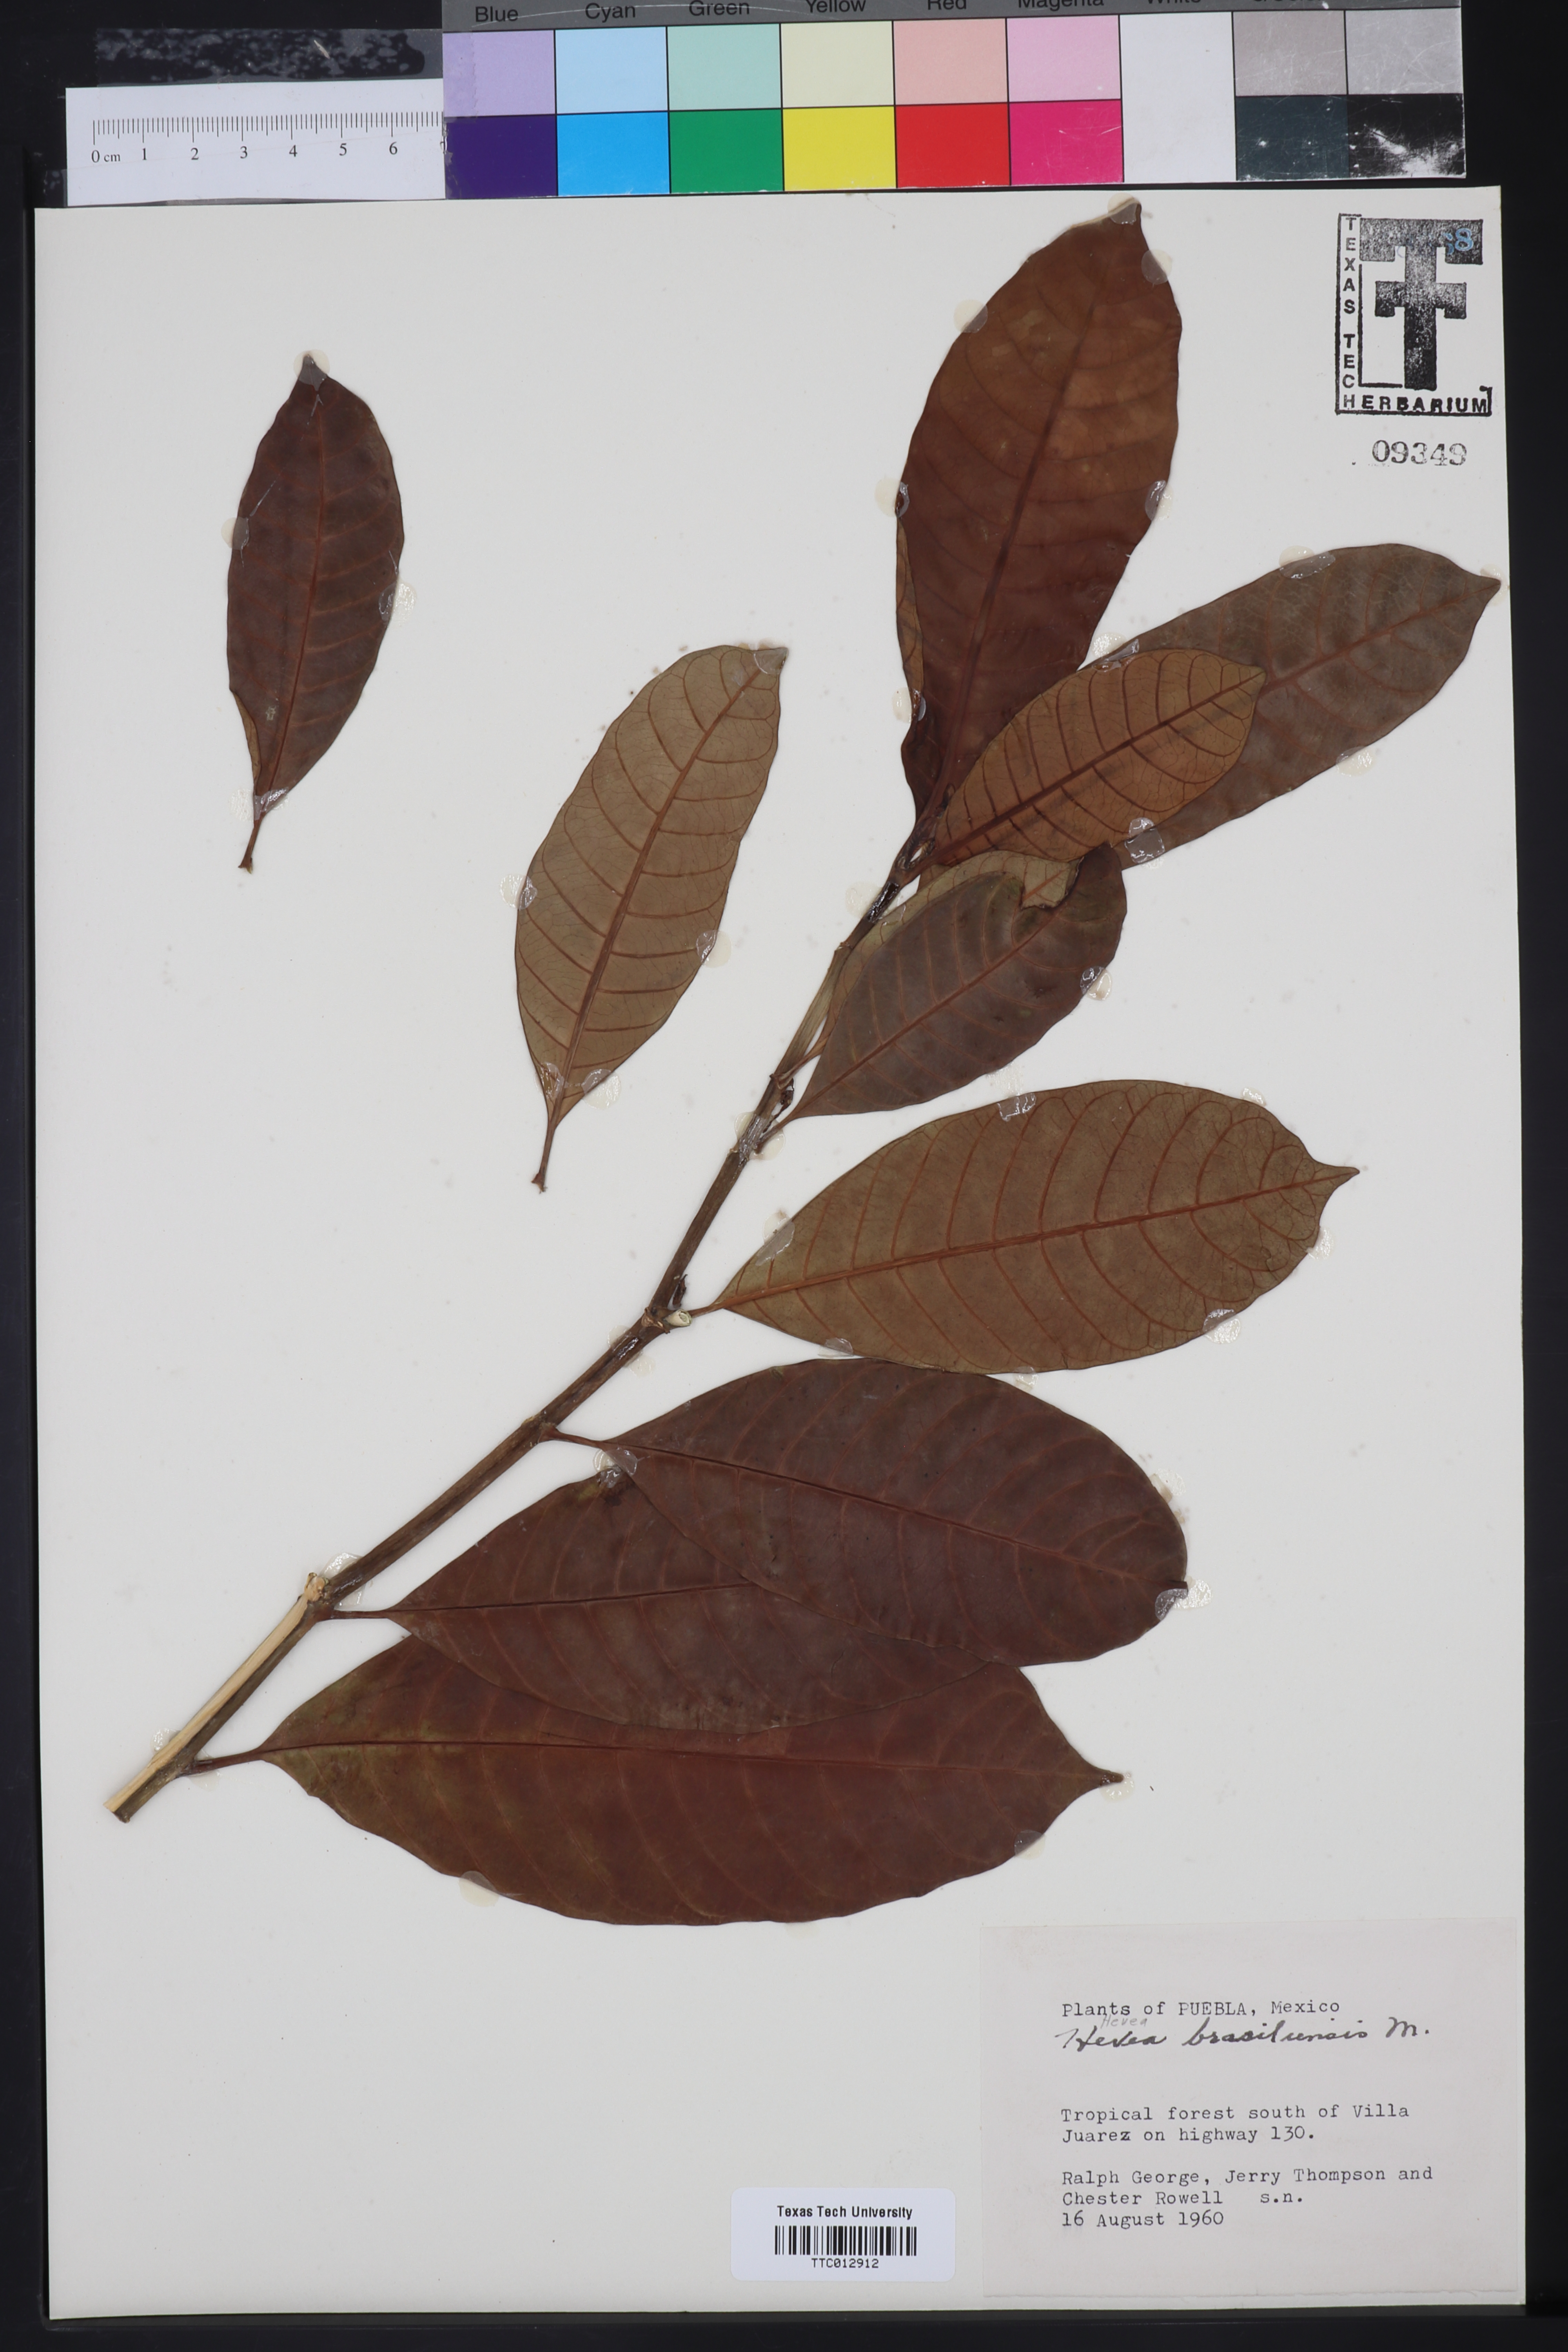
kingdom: Plantae
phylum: Tracheophyta
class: Magnoliopsida
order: Malpighiales
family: Euphorbiaceae
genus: Hevea
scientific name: Hevea brasiliensis
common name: Natural rubber
